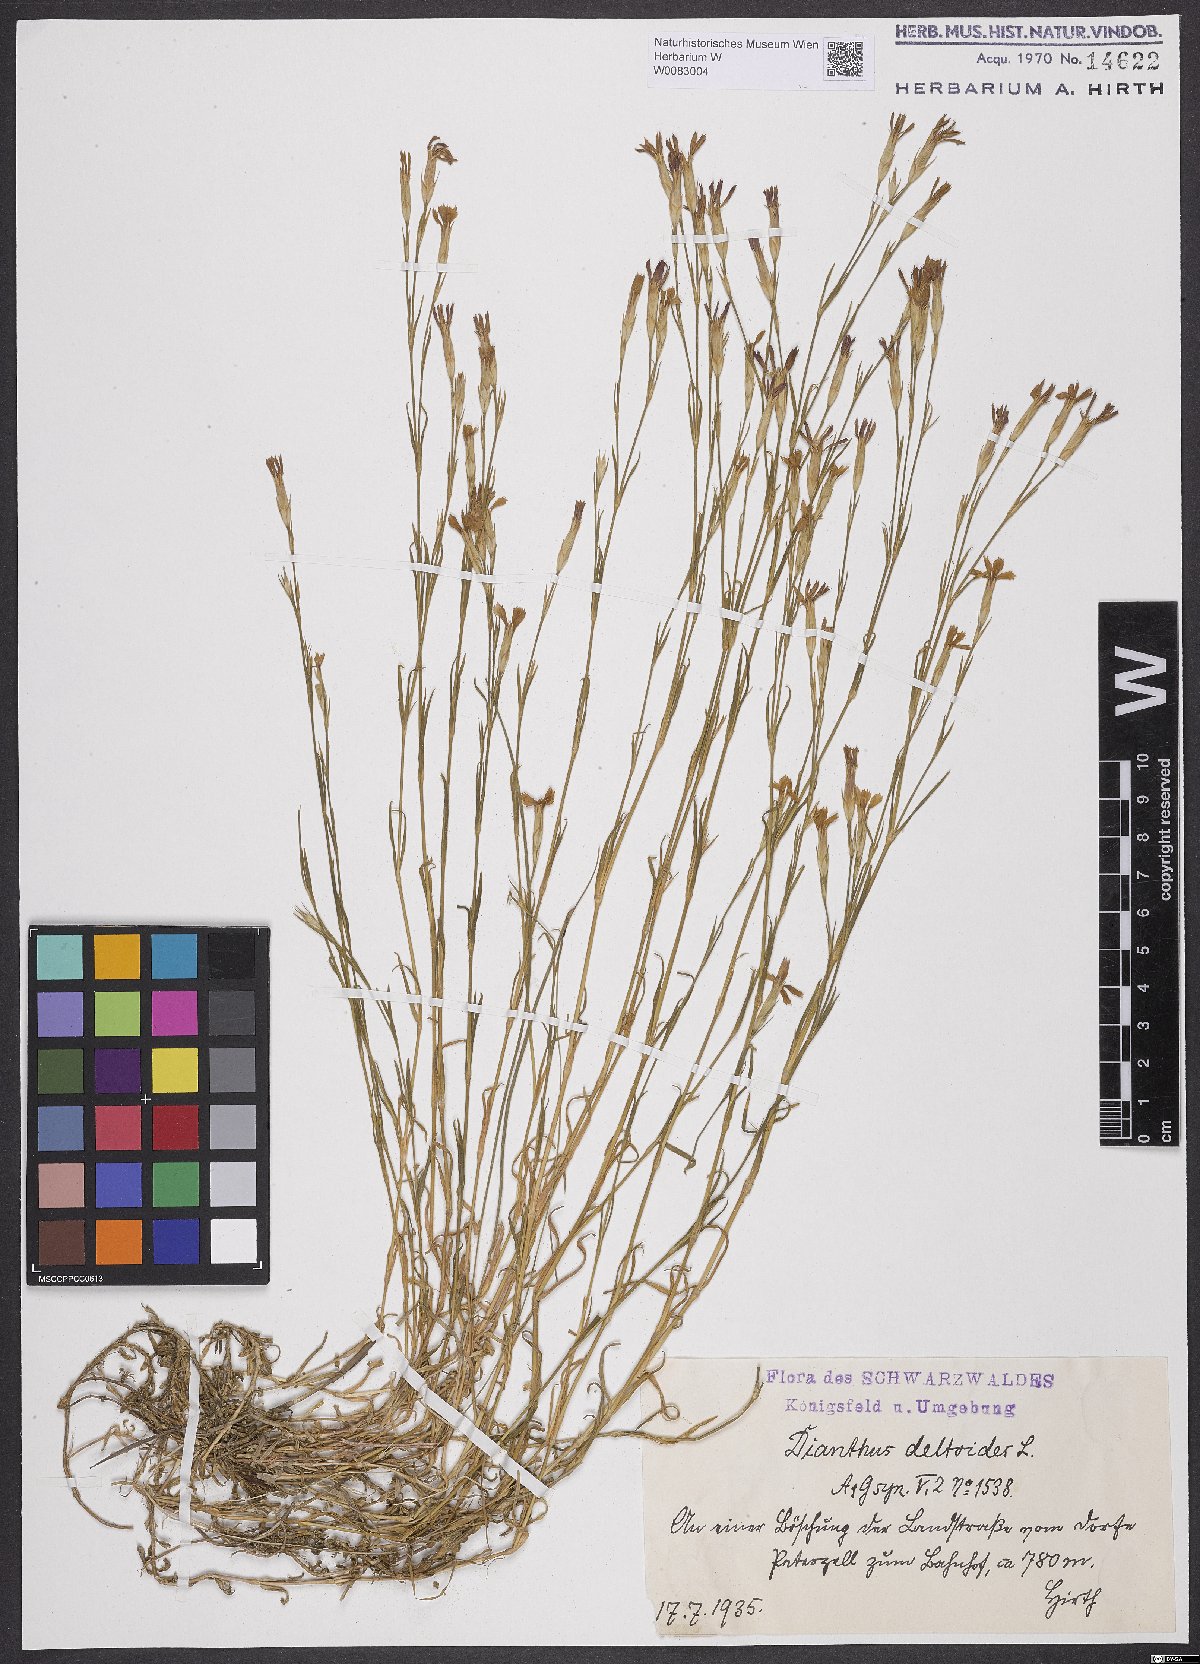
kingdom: Plantae
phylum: Tracheophyta
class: Magnoliopsida
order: Caryophyllales
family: Caryophyllaceae
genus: Dianthus
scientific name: Dianthus deltoides
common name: Maiden pink
